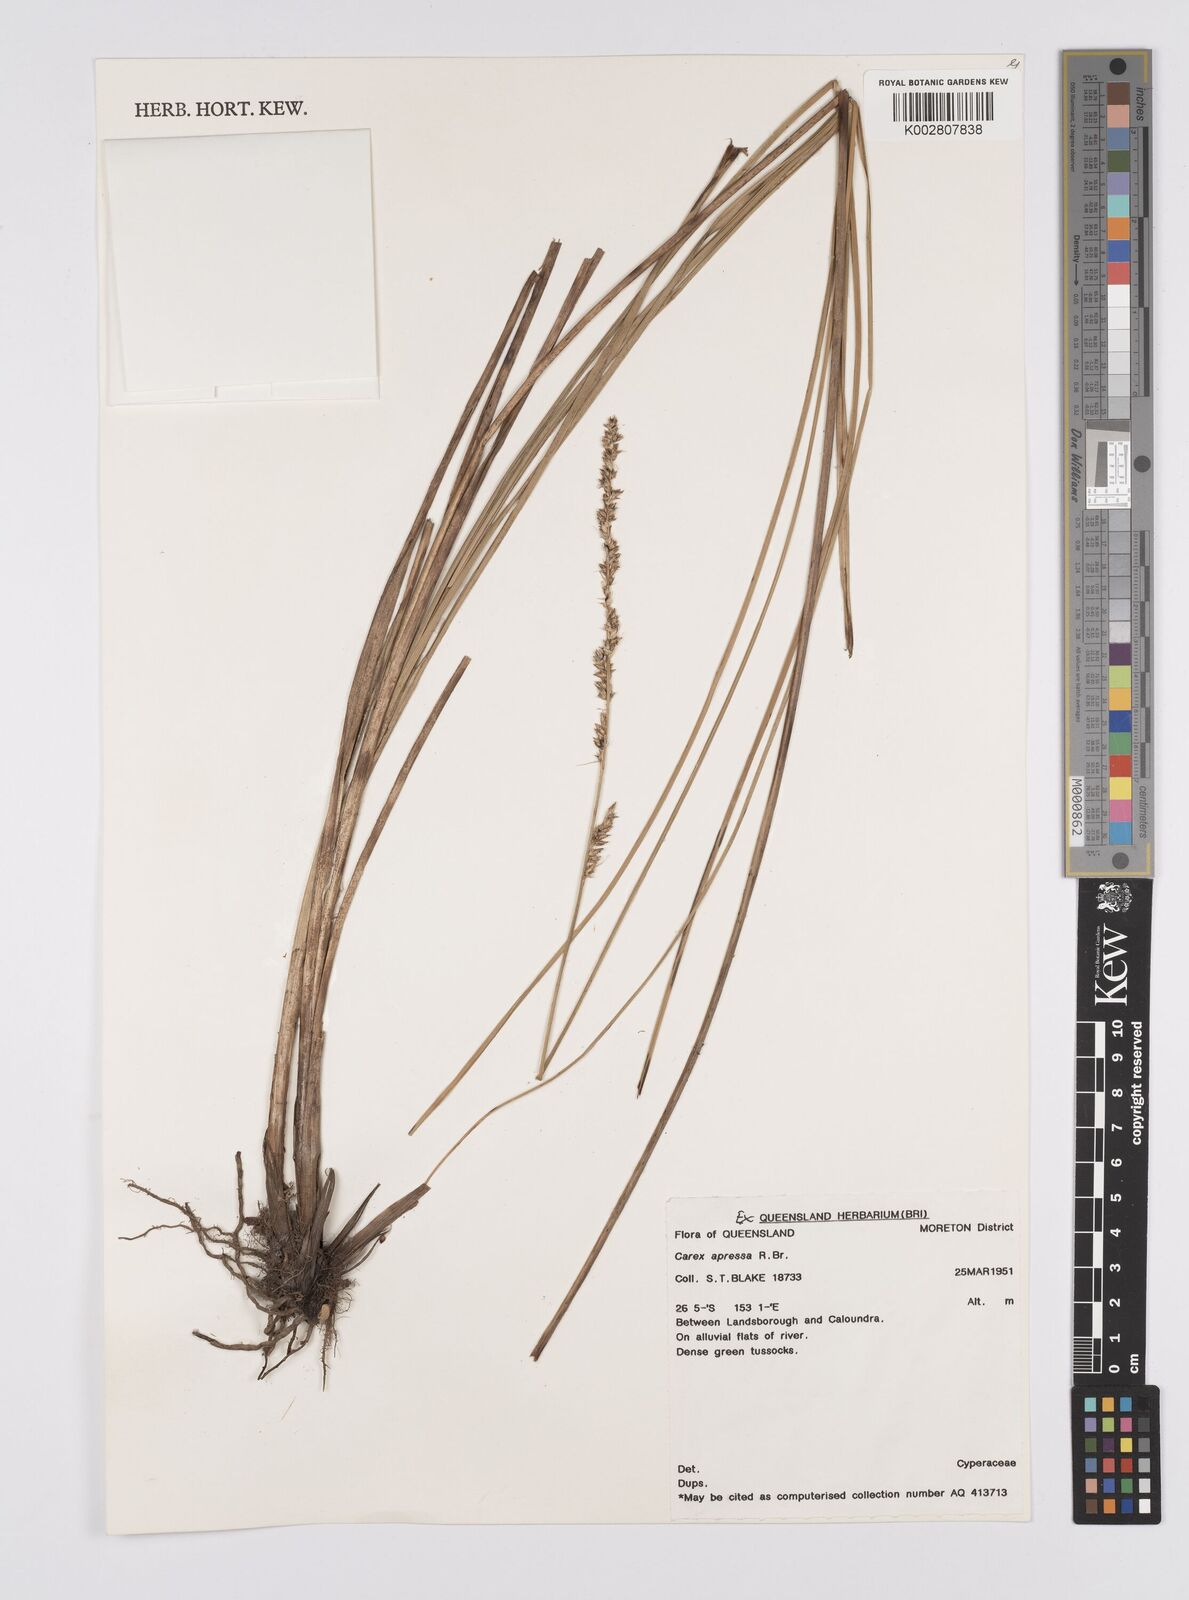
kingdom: Plantae
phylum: Tracheophyta
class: Liliopsida
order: Poales
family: Cyperaceae
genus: Carex
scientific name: Carex appressa
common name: Tussock sedge
